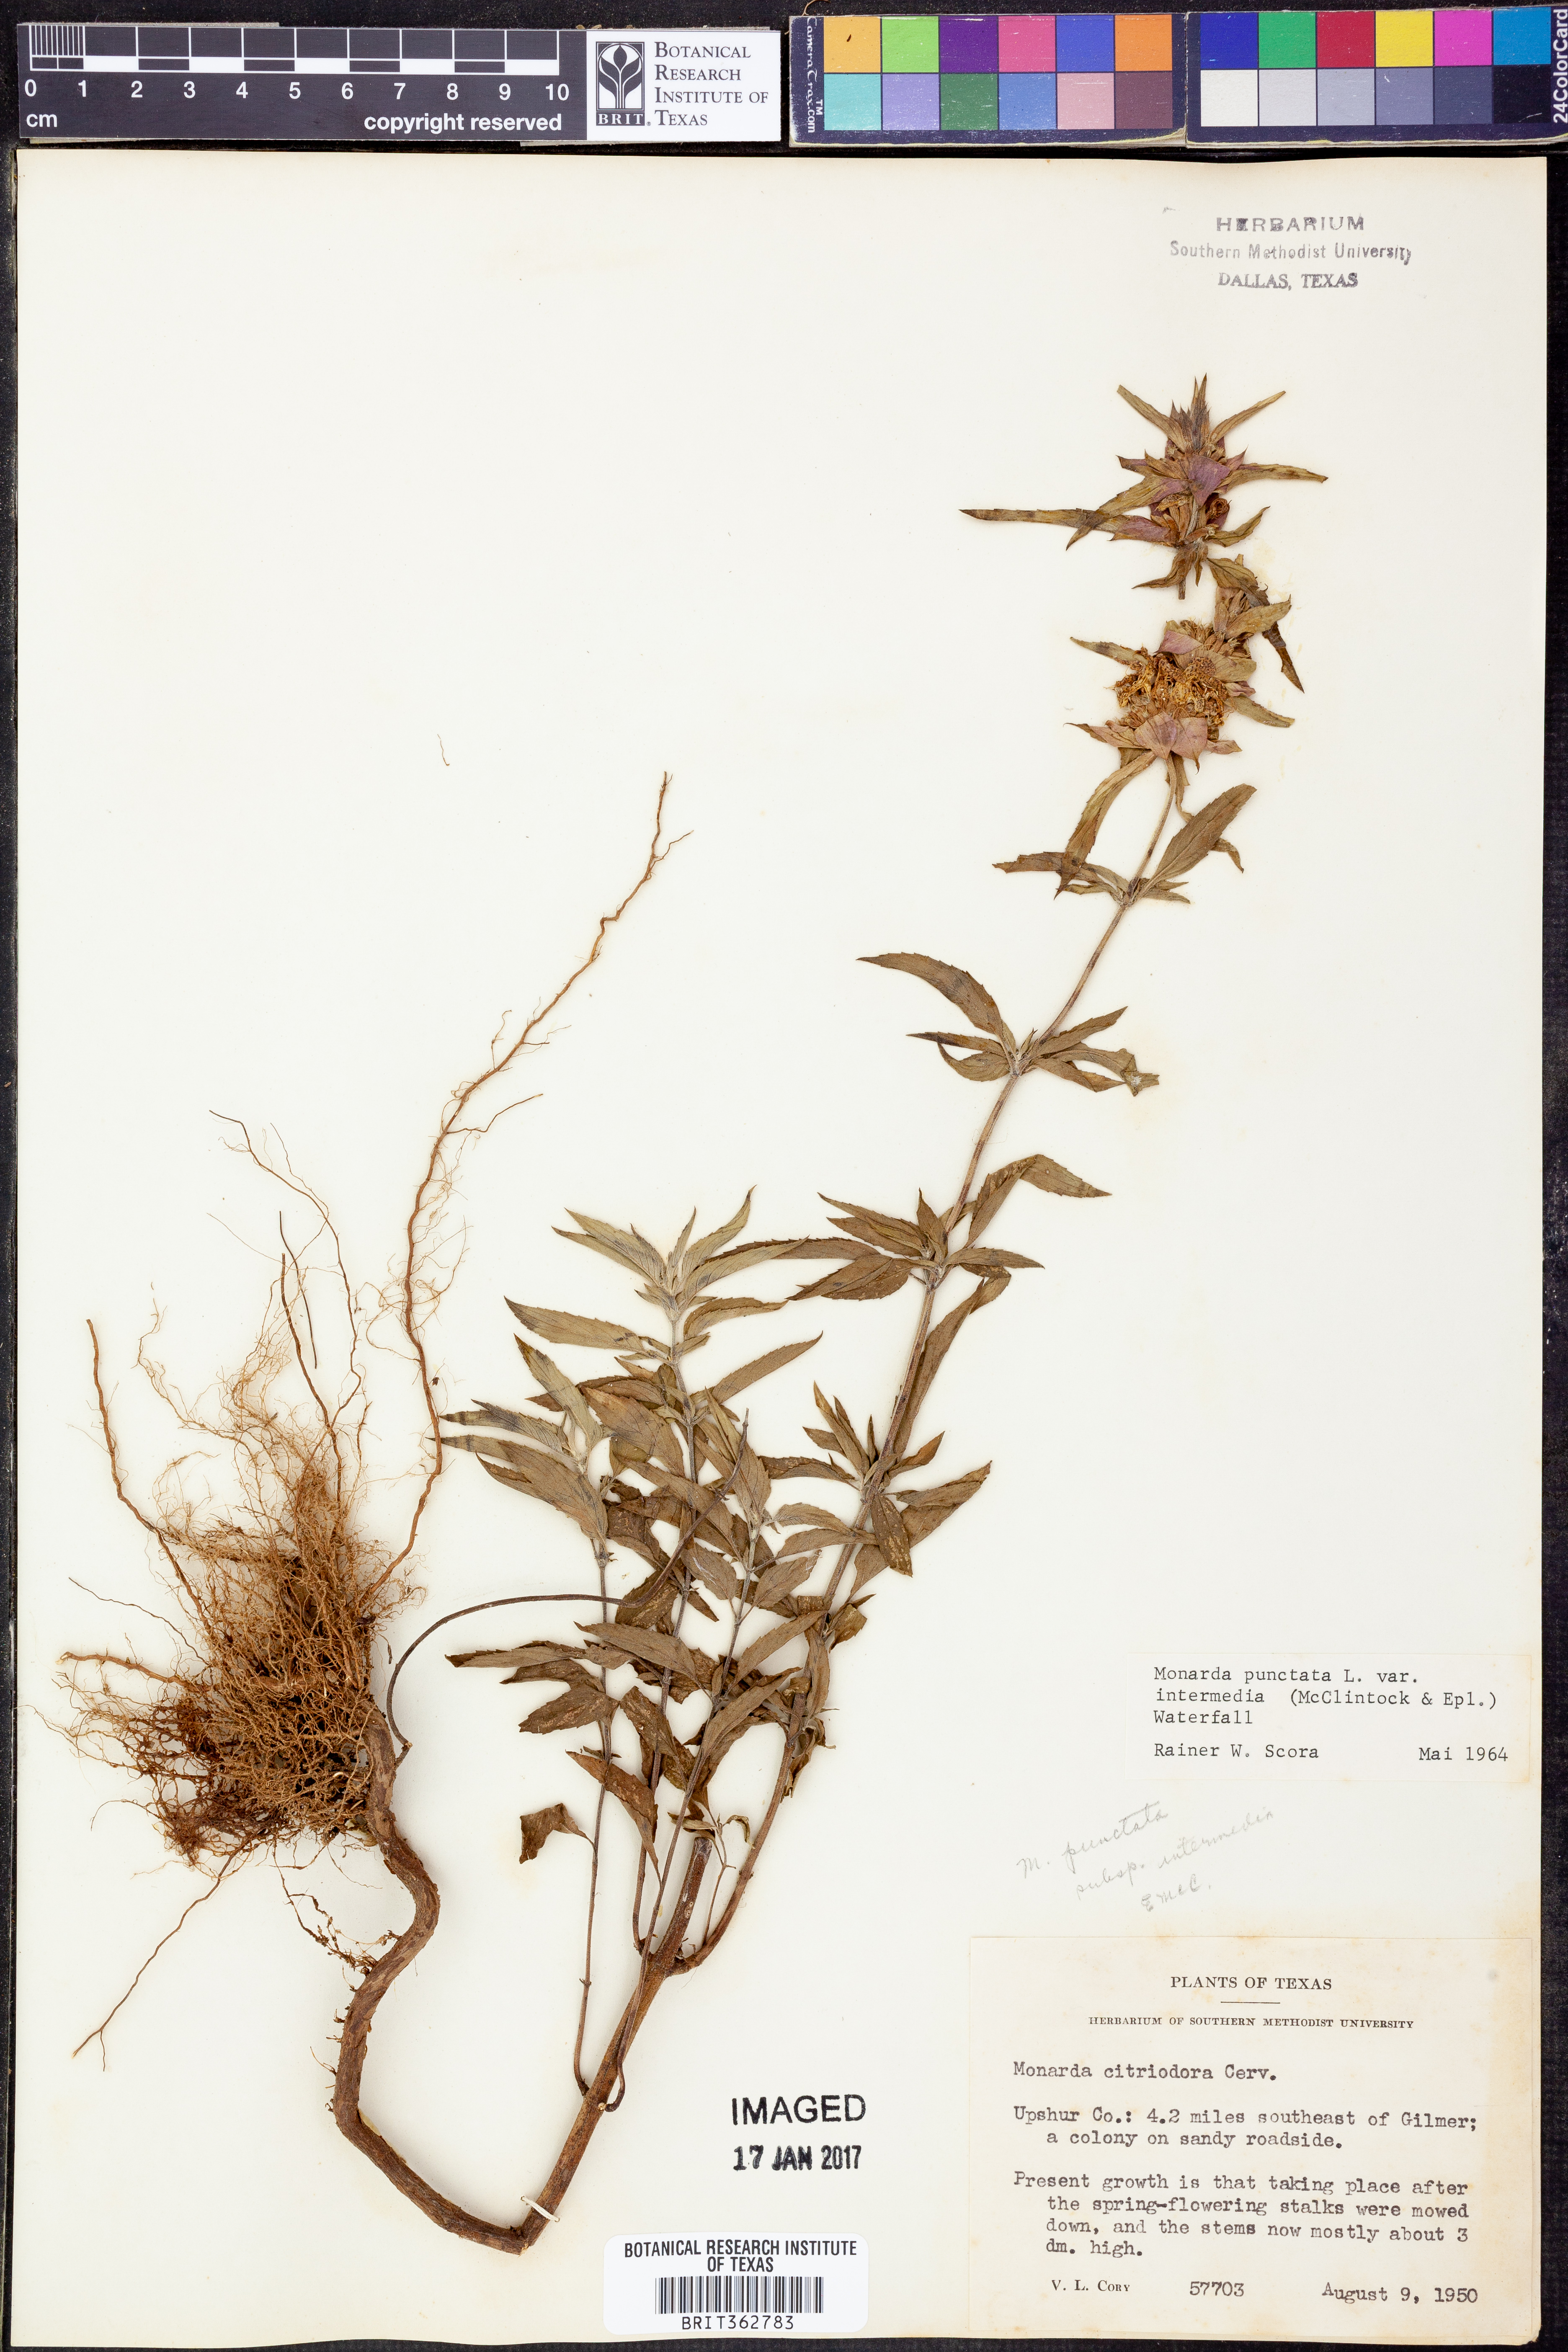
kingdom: Plantae
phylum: Tracheophyta
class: Magnoliopsida
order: Lamiales
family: Lamiaceae
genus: Monarda
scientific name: Monarda punctata
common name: Dotted monarda
